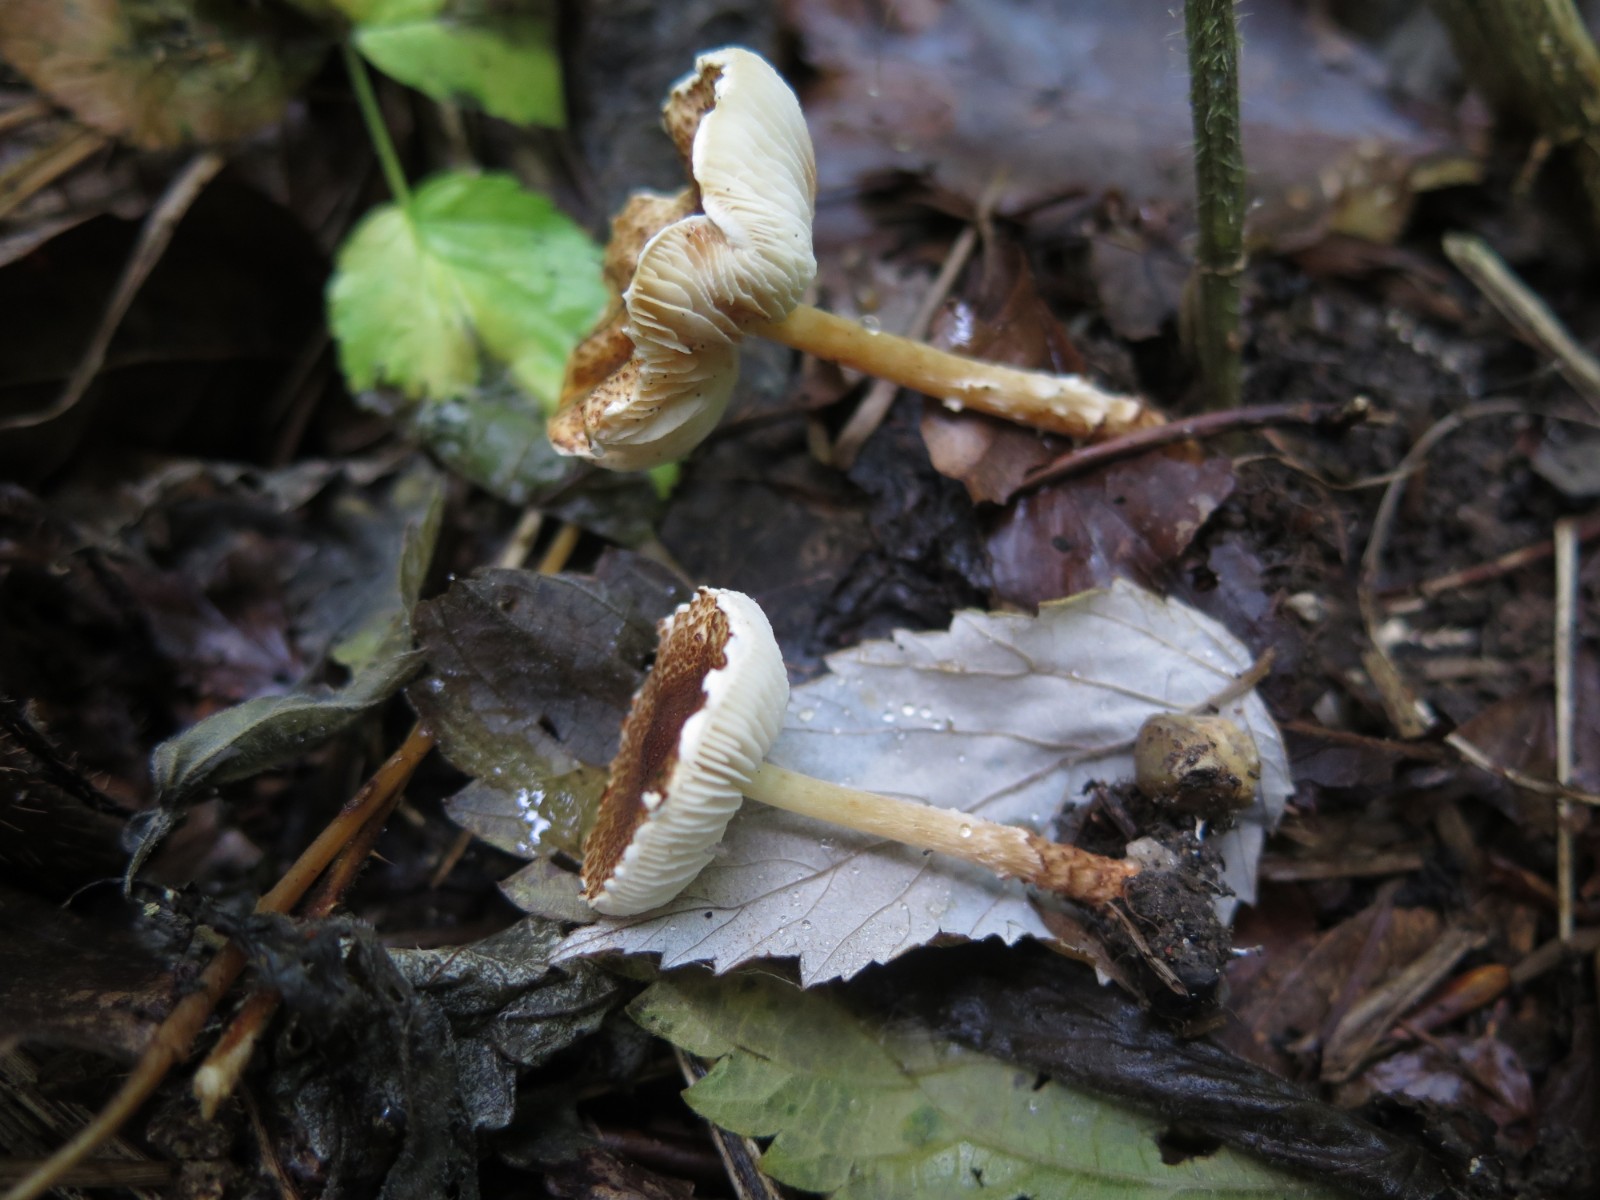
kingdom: Fungi
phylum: Basidiomycota
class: Agaricomycetes
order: Agaricales
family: Agaricaceae
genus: Lepiota
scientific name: Lepiota castanea
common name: kastaniebrun parasolhat
